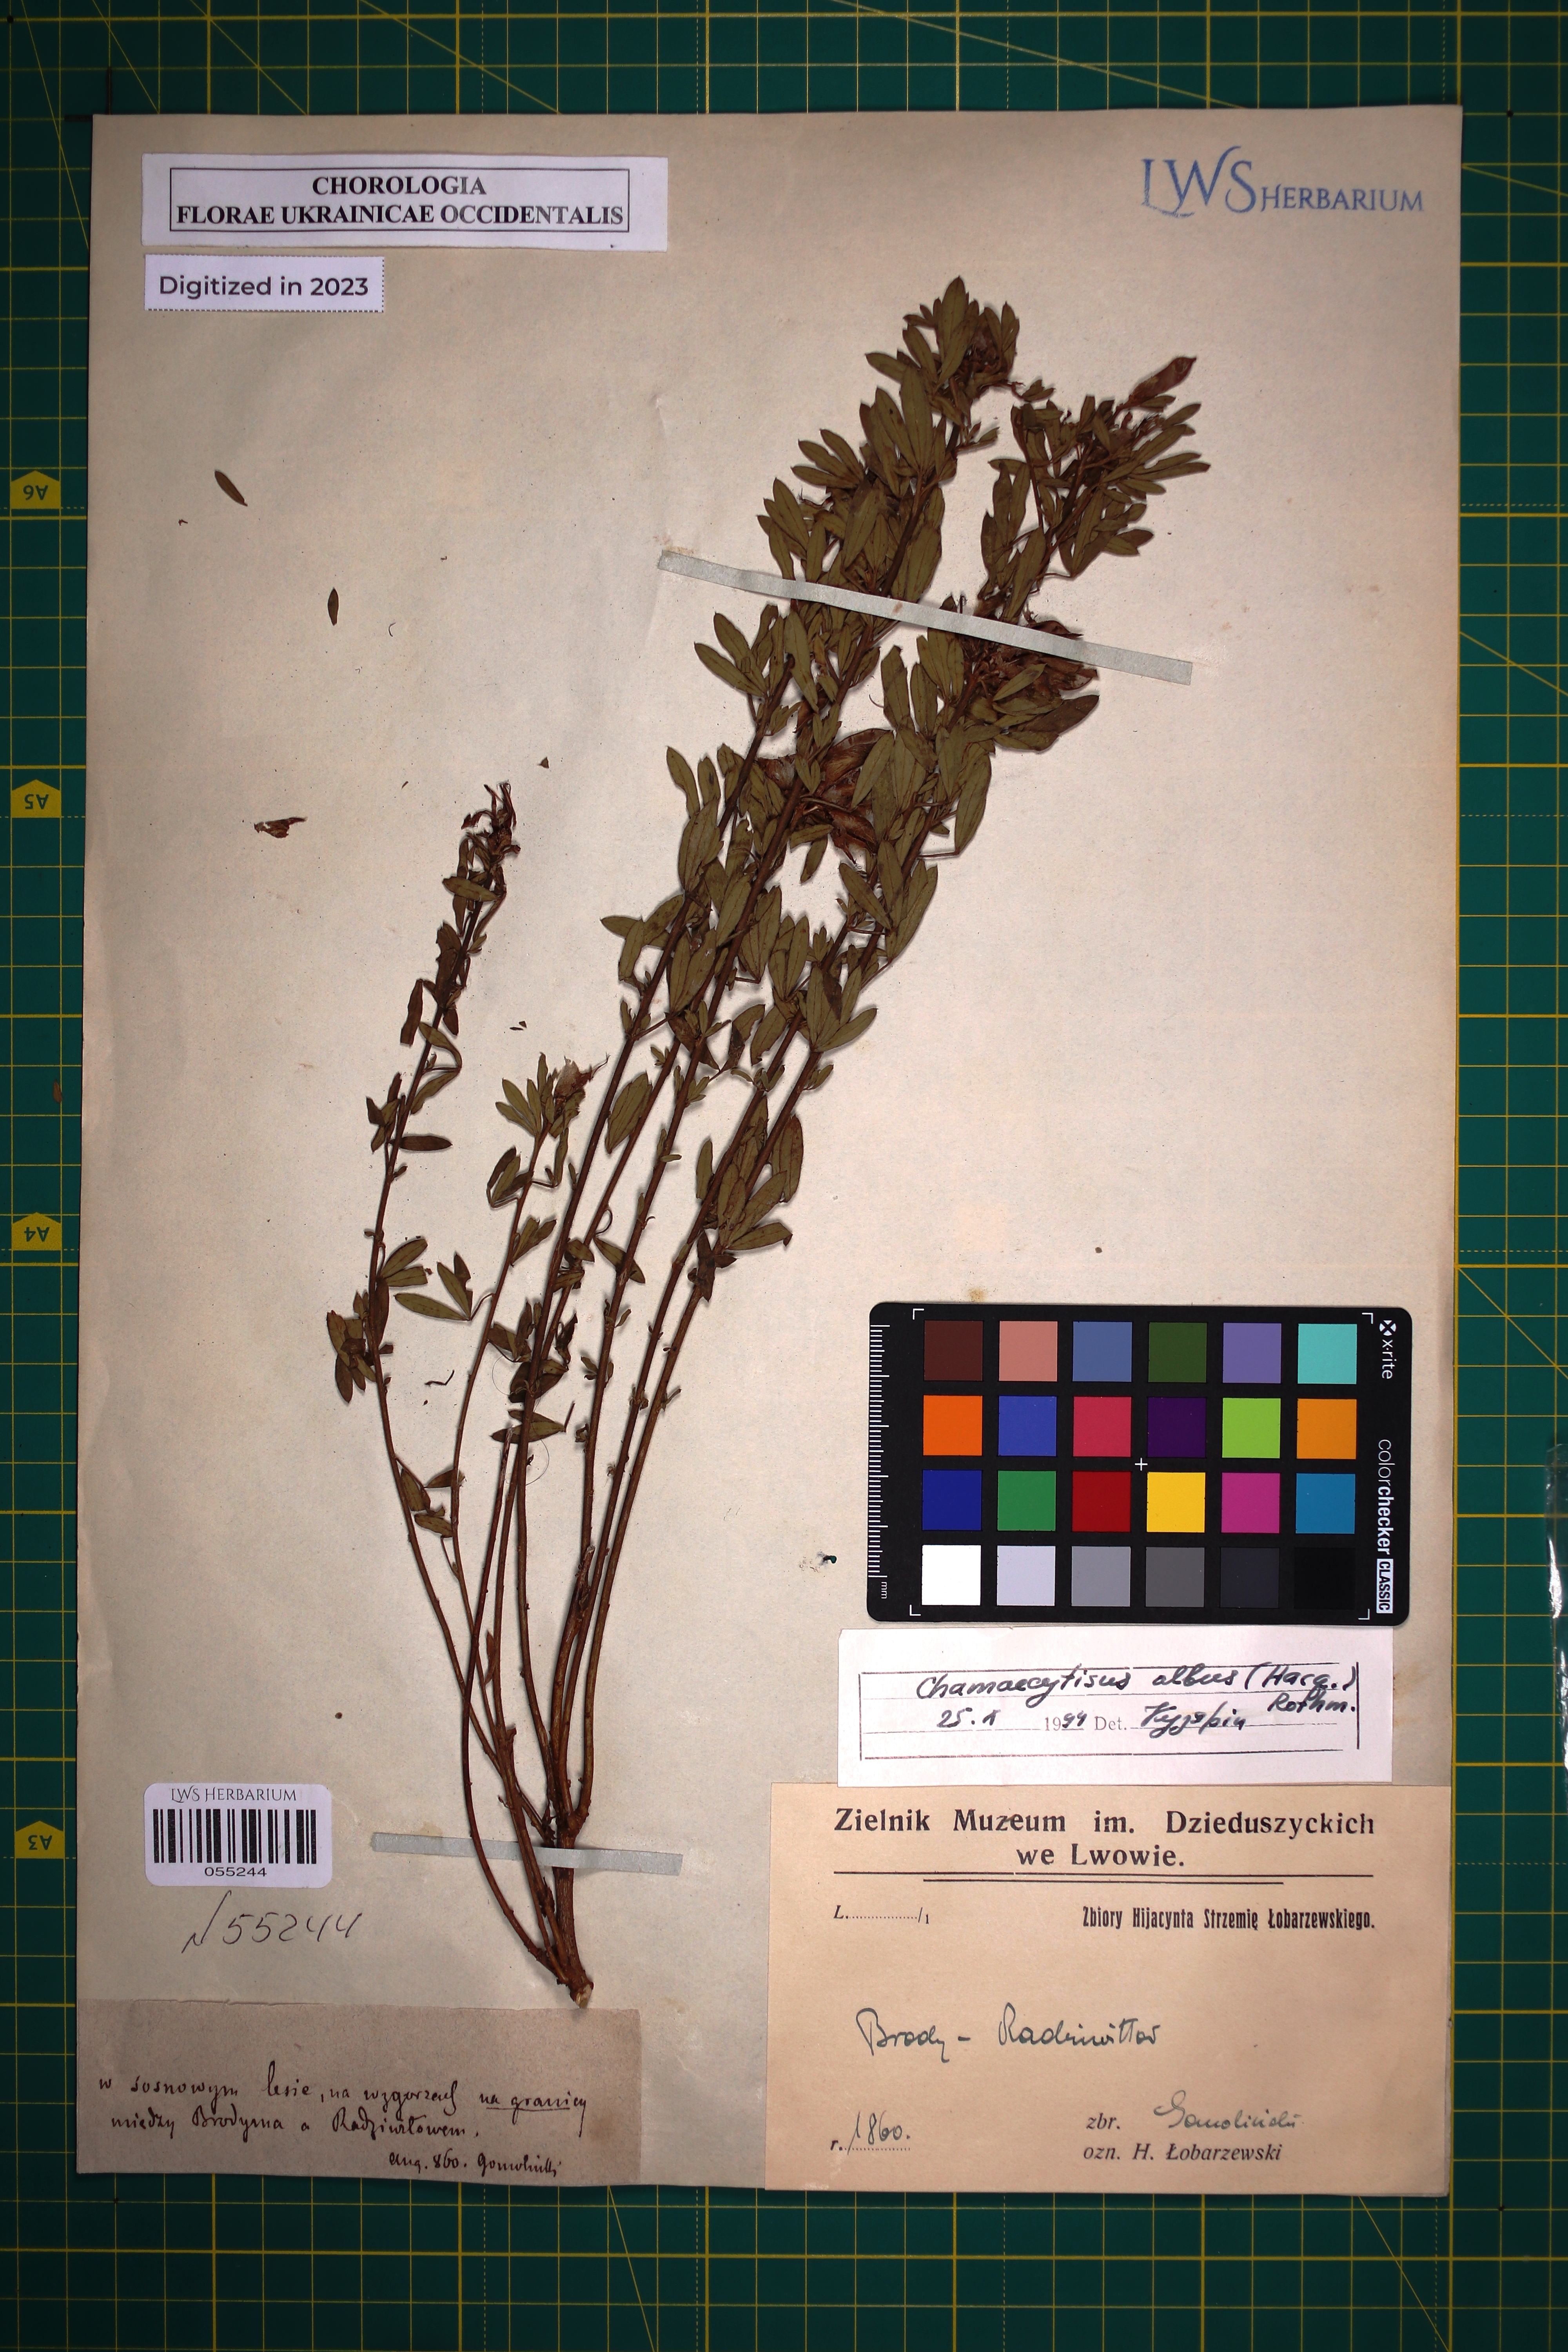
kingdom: Plantae
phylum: Tracheophyta
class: Magnoliopsida
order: Fabales
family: Fabaceae
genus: Chamaecytisus
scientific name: Chamaecytisus albus
